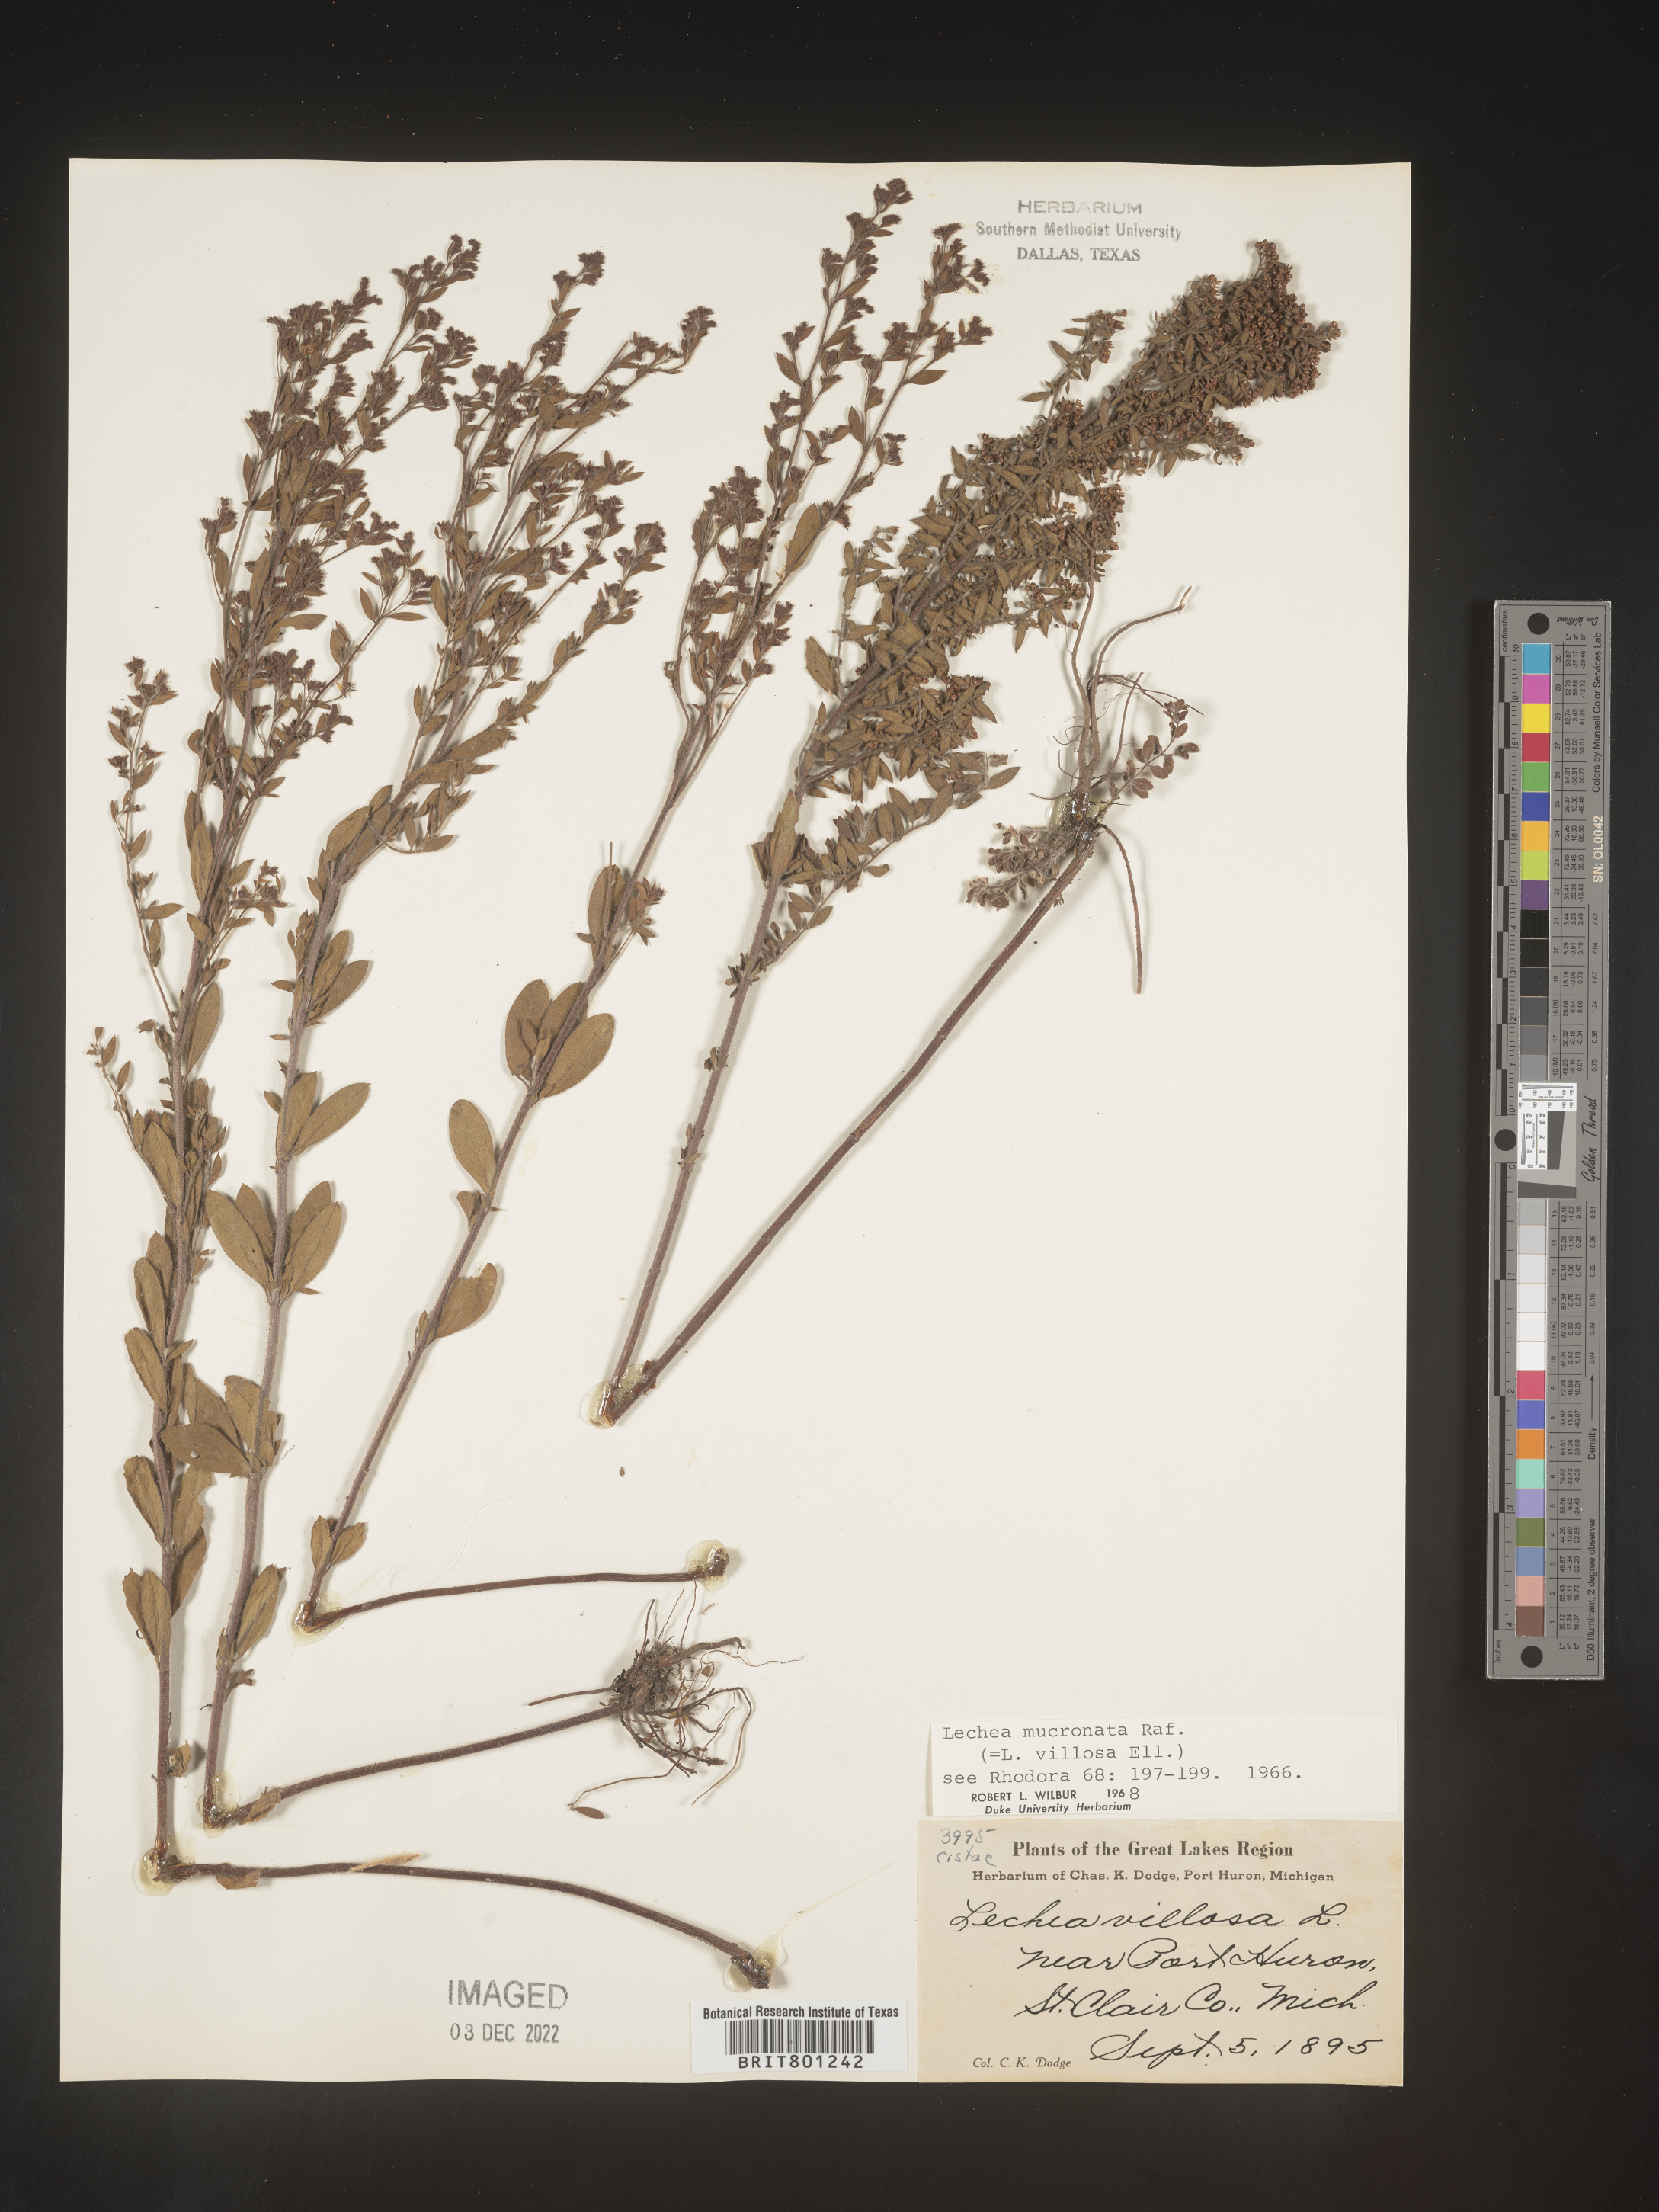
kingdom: Plantae
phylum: Tracheophyta
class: Magnoliopsida
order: Malvales
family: Cistaceae
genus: Lechea
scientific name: Lechea mucronata
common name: Hairy pinweed
